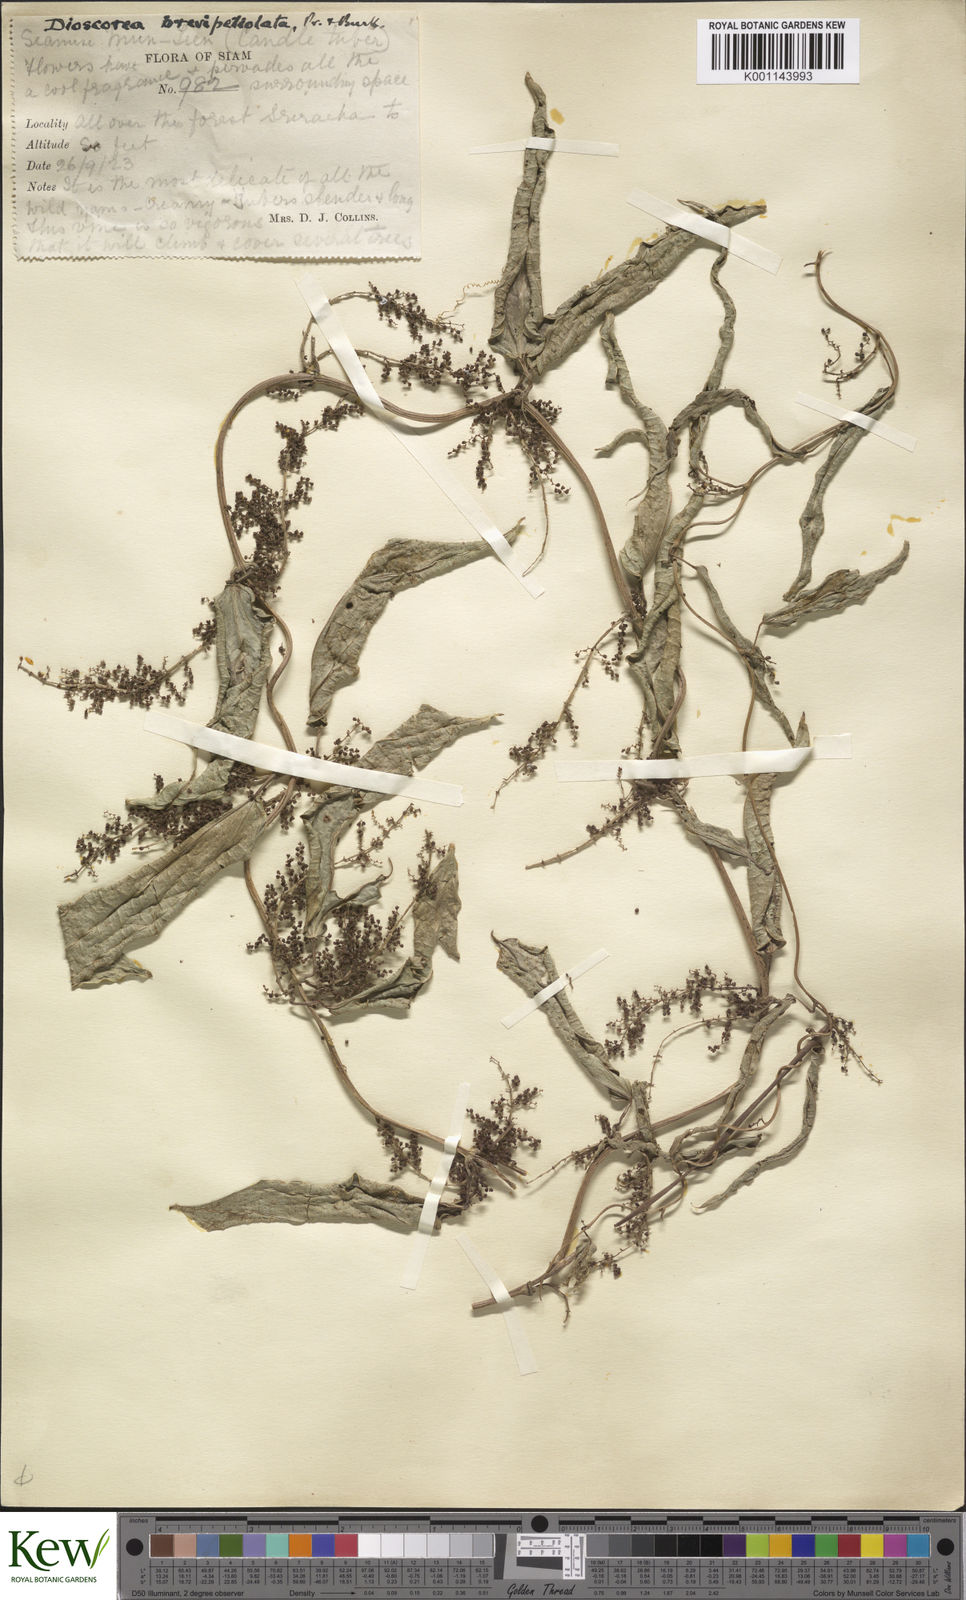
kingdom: Plantae
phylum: Tracheophyta
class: Liliopsida
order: Dioscoreales
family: Dioscoreaceae
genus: Dioscorea
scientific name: Dioscorea brevipetiolata
